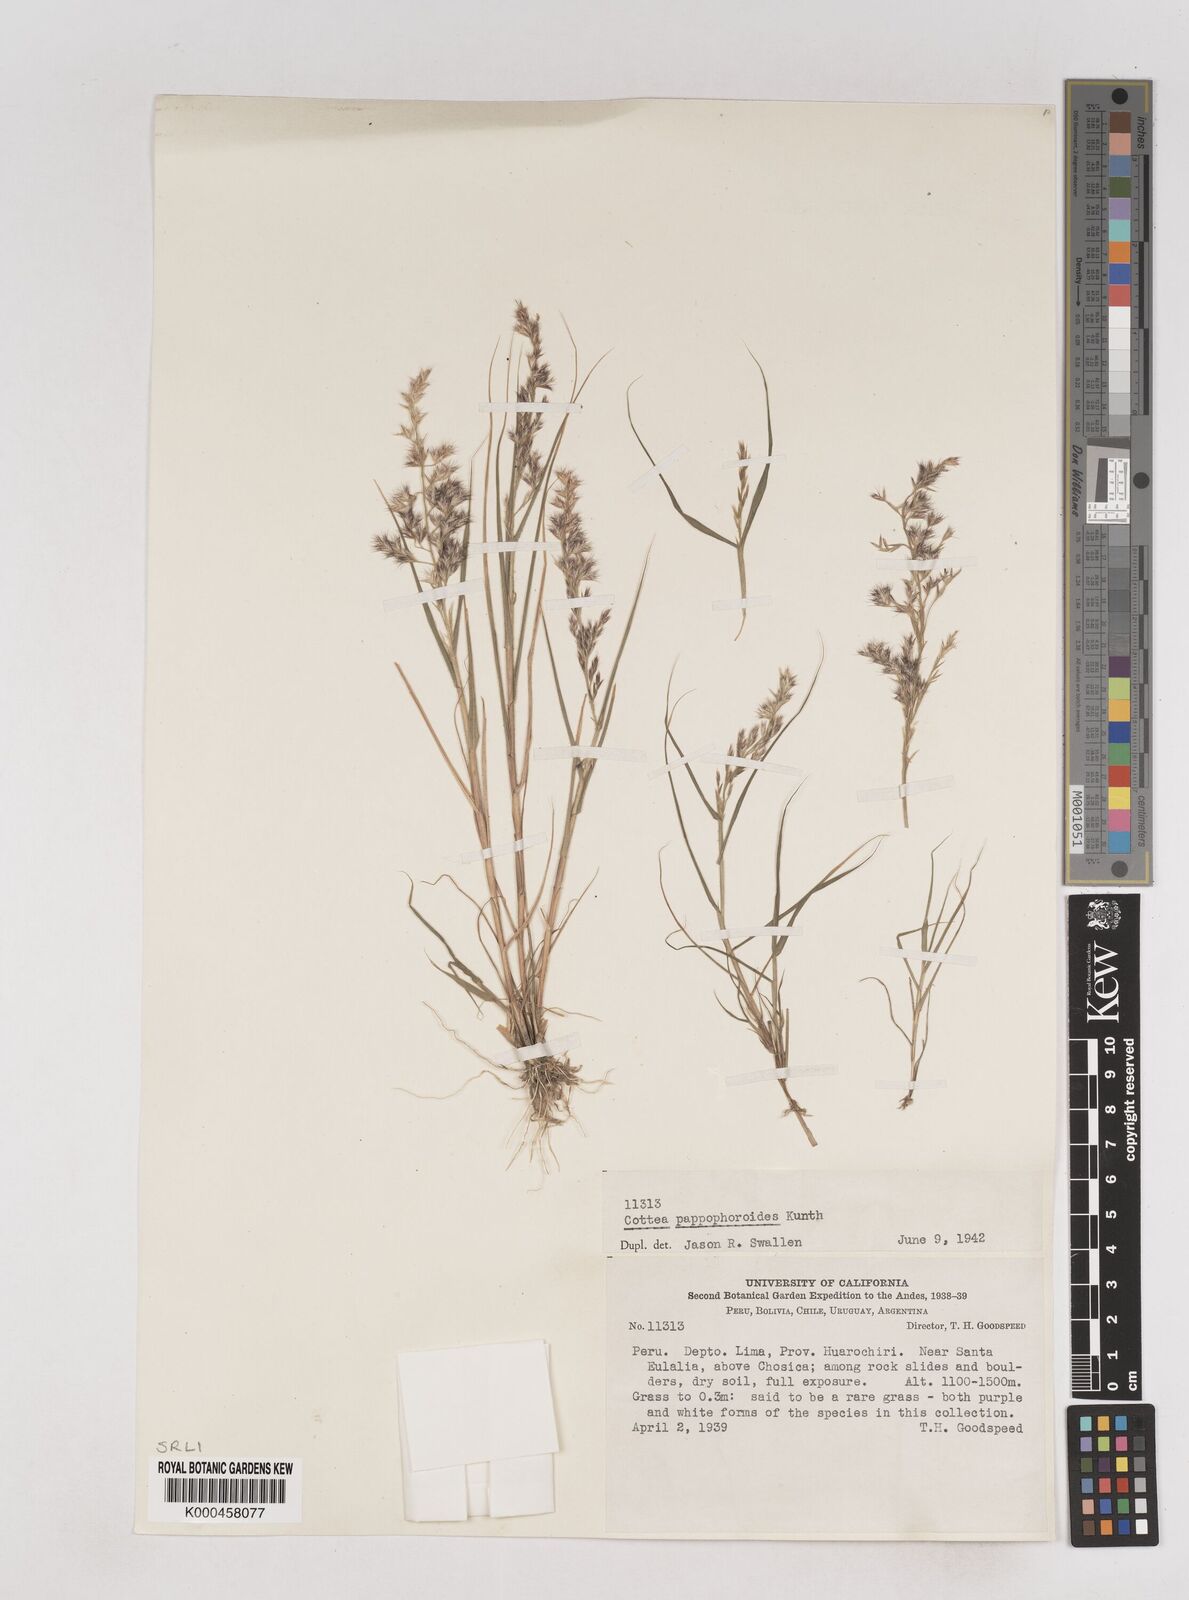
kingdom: Plantae
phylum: Tracheophyta
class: Liliopsida
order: Poales
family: Poaceae
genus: Cottea
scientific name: Cottea
